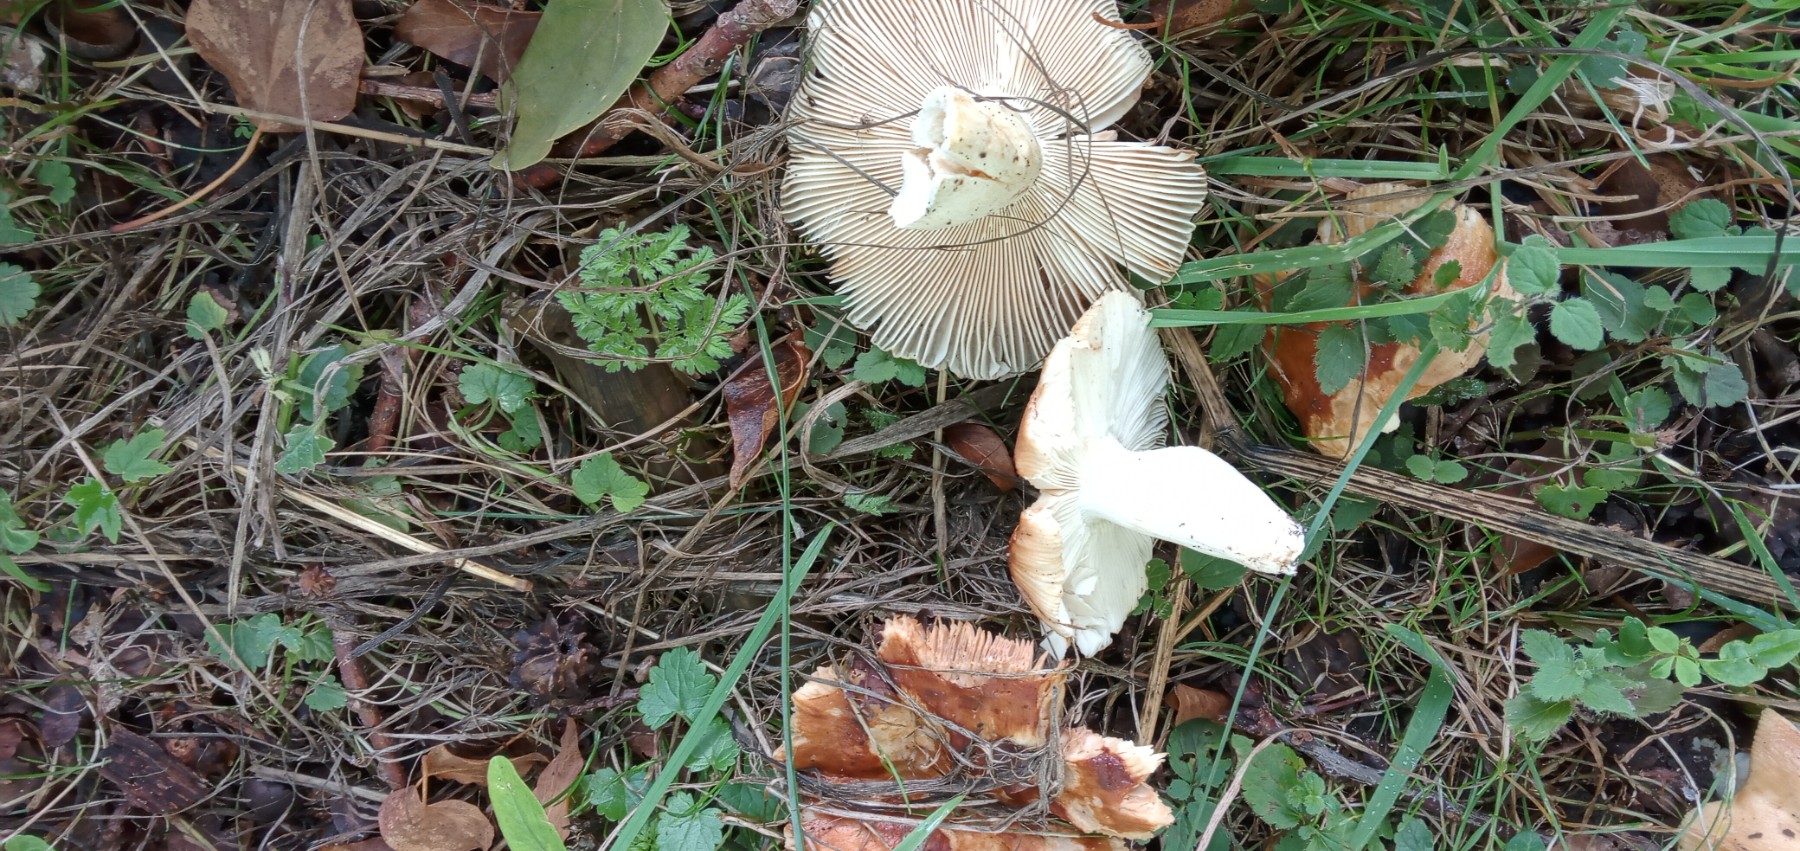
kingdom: Fungi
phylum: Basidiomycota
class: Agaricomycetes
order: Russulales
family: Russulaceae
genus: Russula
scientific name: Russula foetens
